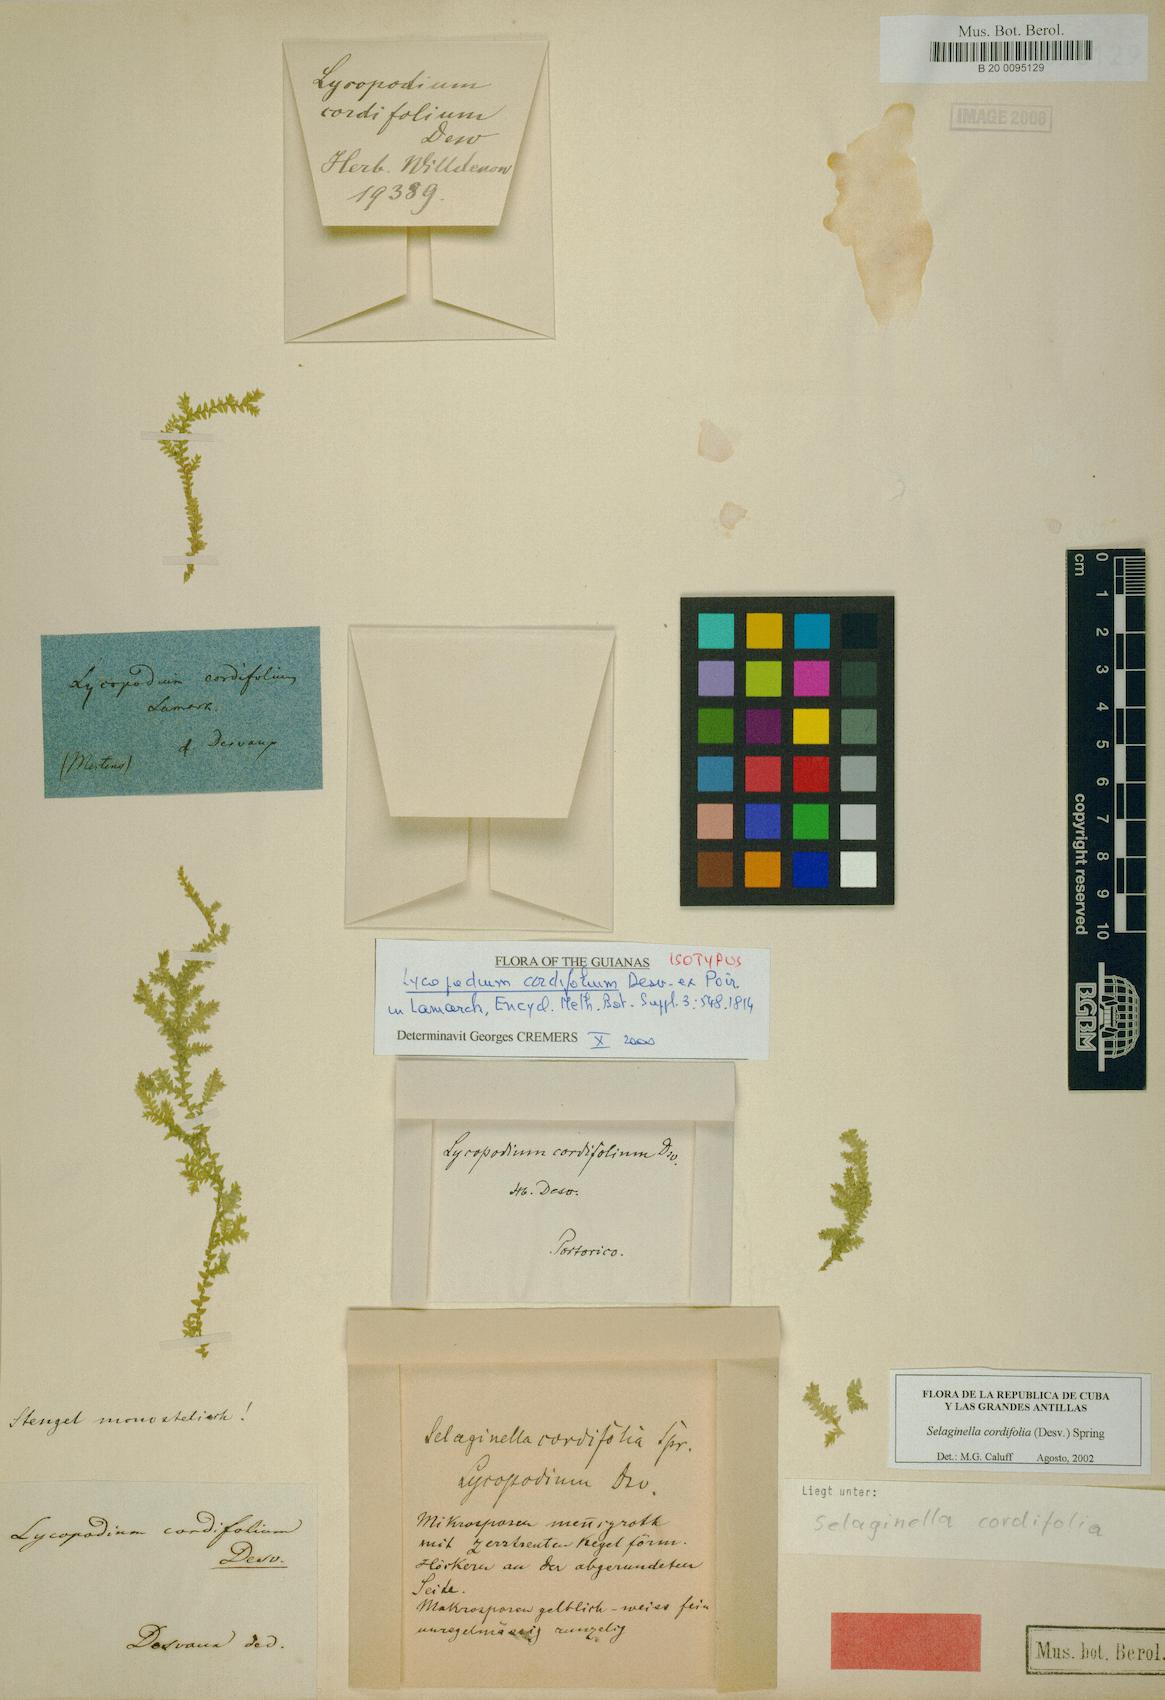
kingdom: Plantae
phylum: Tracheophyta
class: Lycopodiopsida
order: Selaginellales
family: Selaginellaceae
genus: Selaginella
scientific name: Selaginella cordifolia
